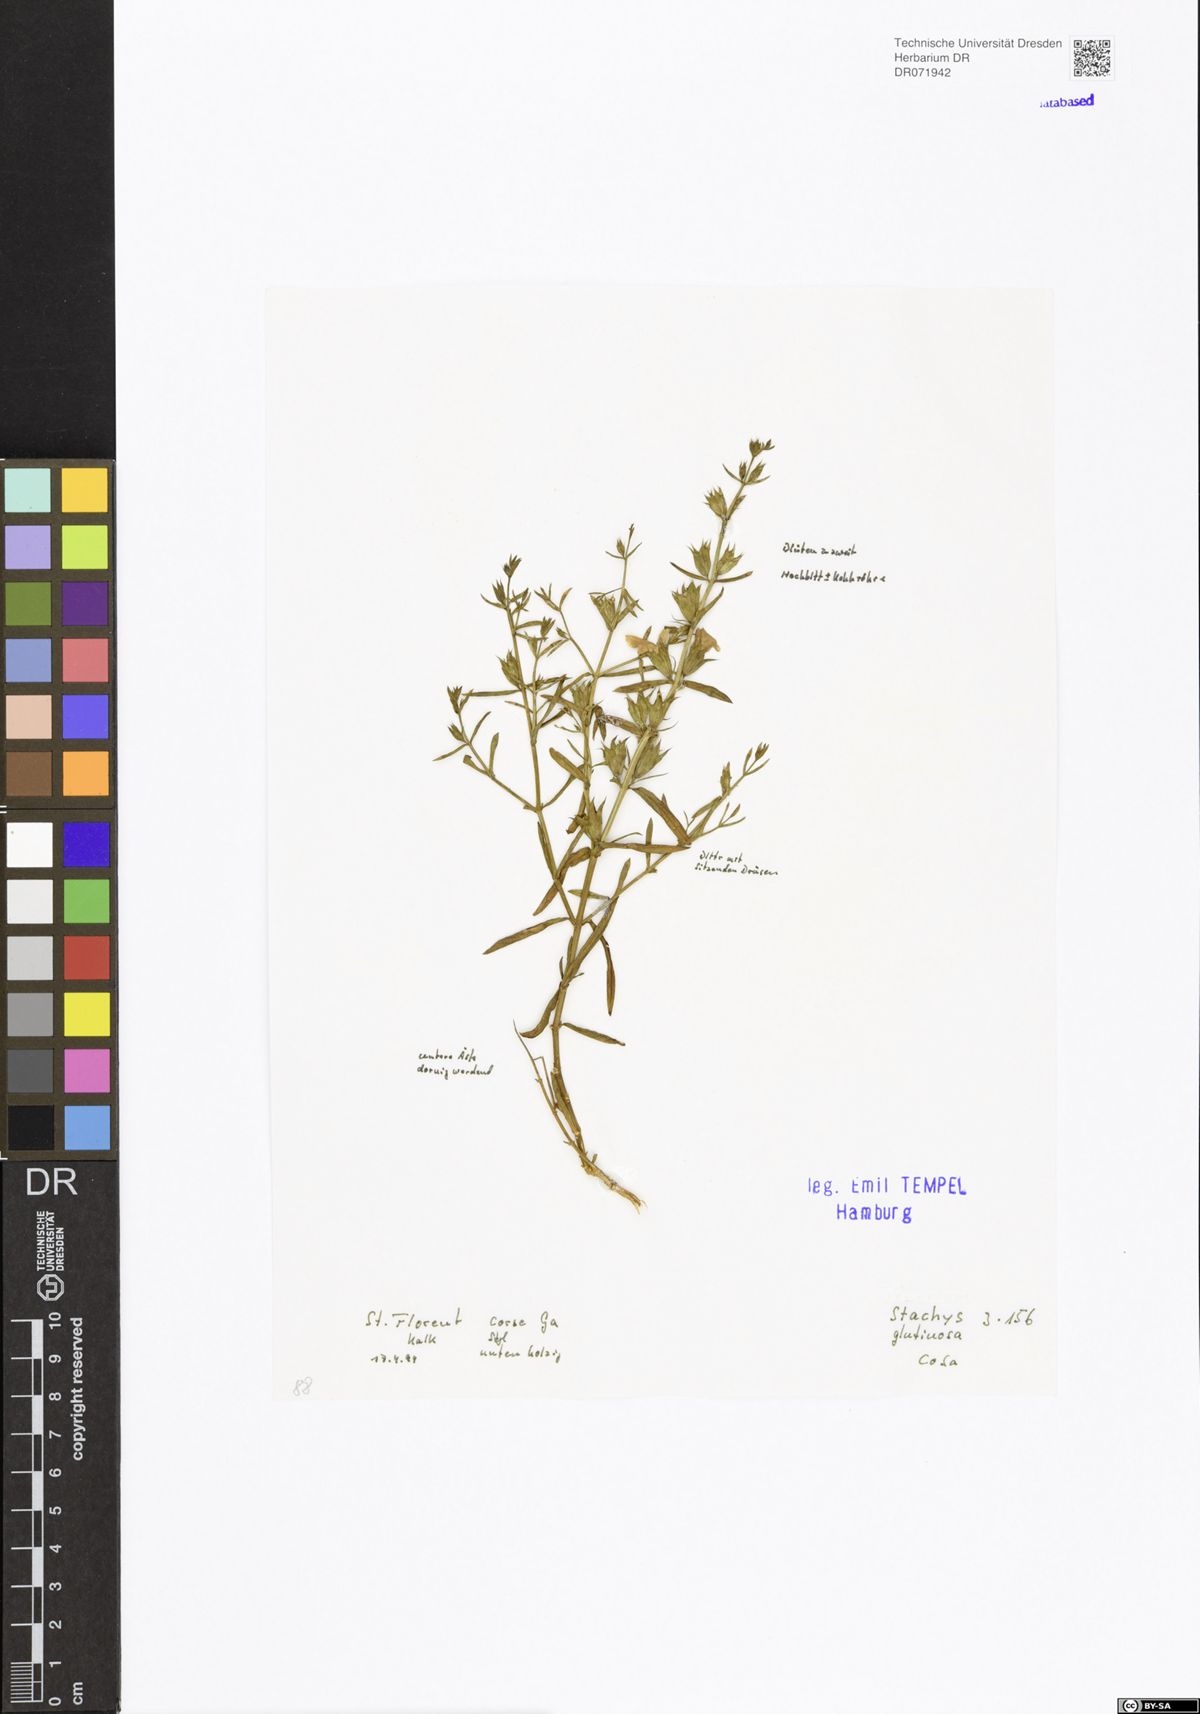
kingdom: Plantae
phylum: Tracheophyta
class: Magnoliopsida
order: Lamiales
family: Lamiaceae
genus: Stachys
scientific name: Stachys glutinosa
